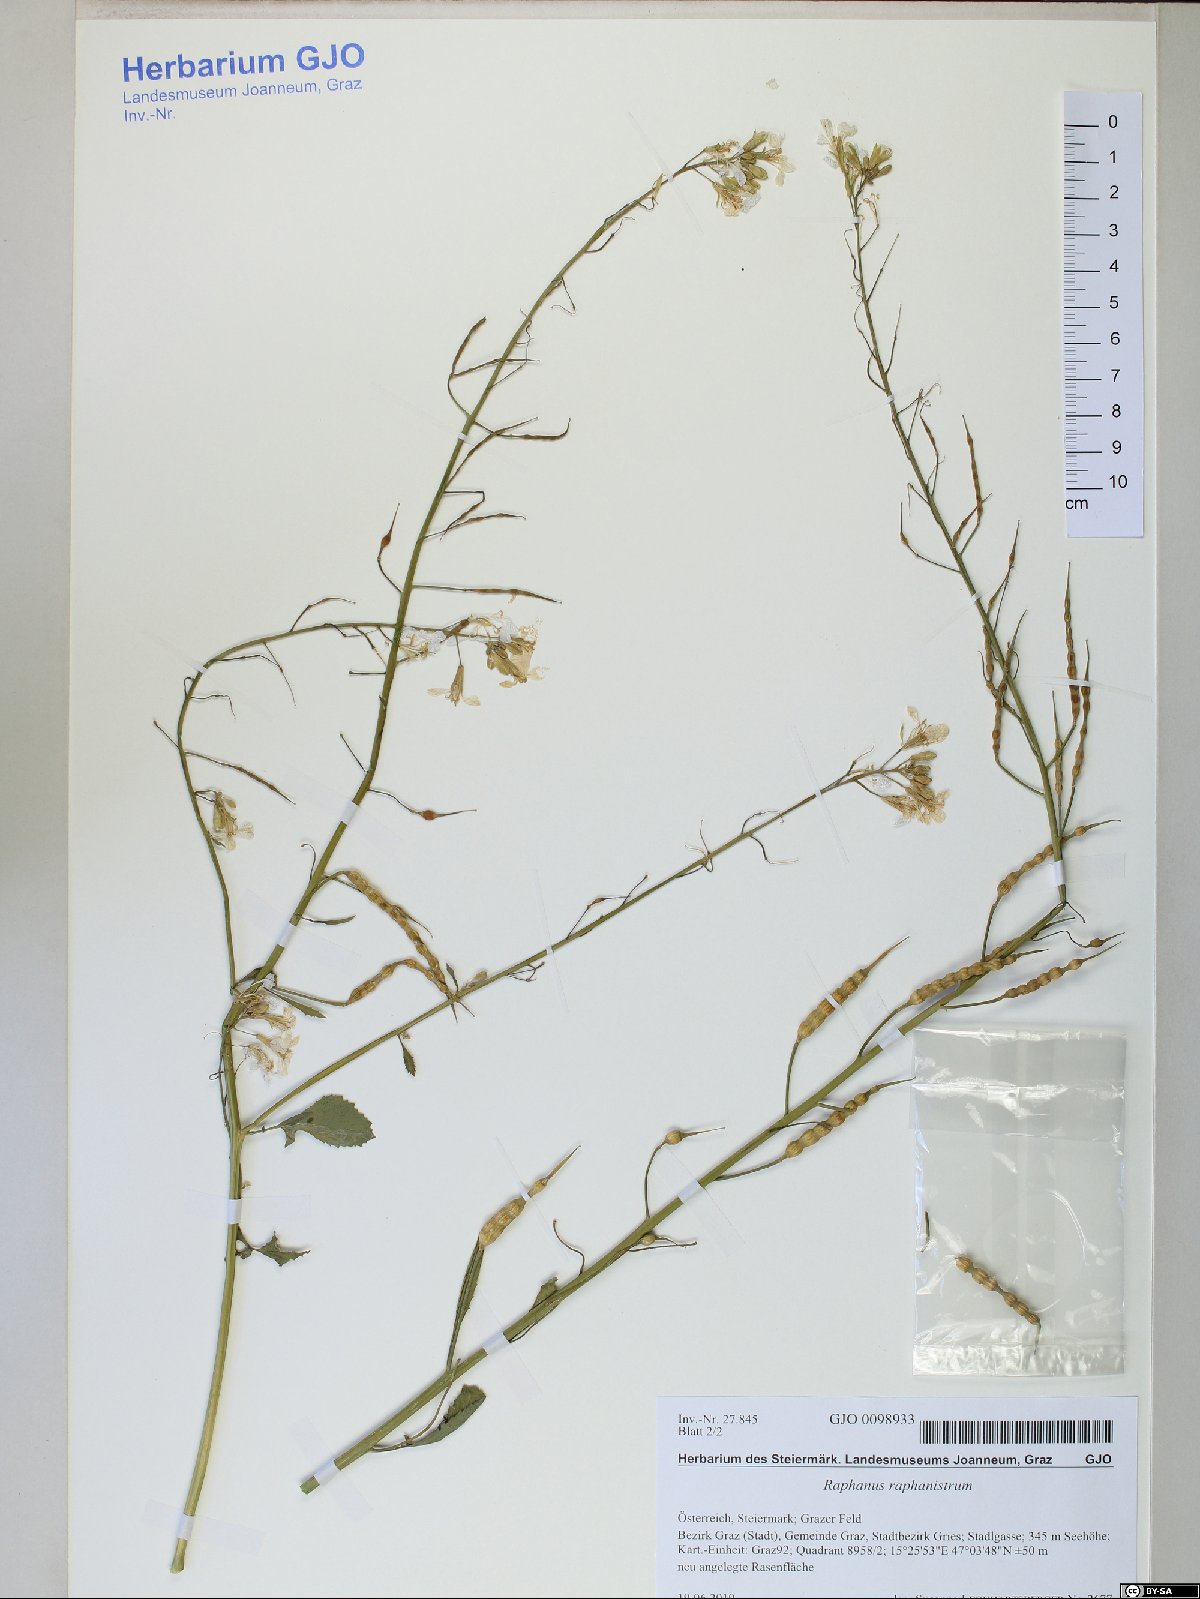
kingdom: Plantae
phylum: Tracheophyta
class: Magnoliopsida
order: Brassicales
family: Brassicaceae
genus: Raphanus
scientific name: Raphanus raphanistrum
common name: Wild radish
